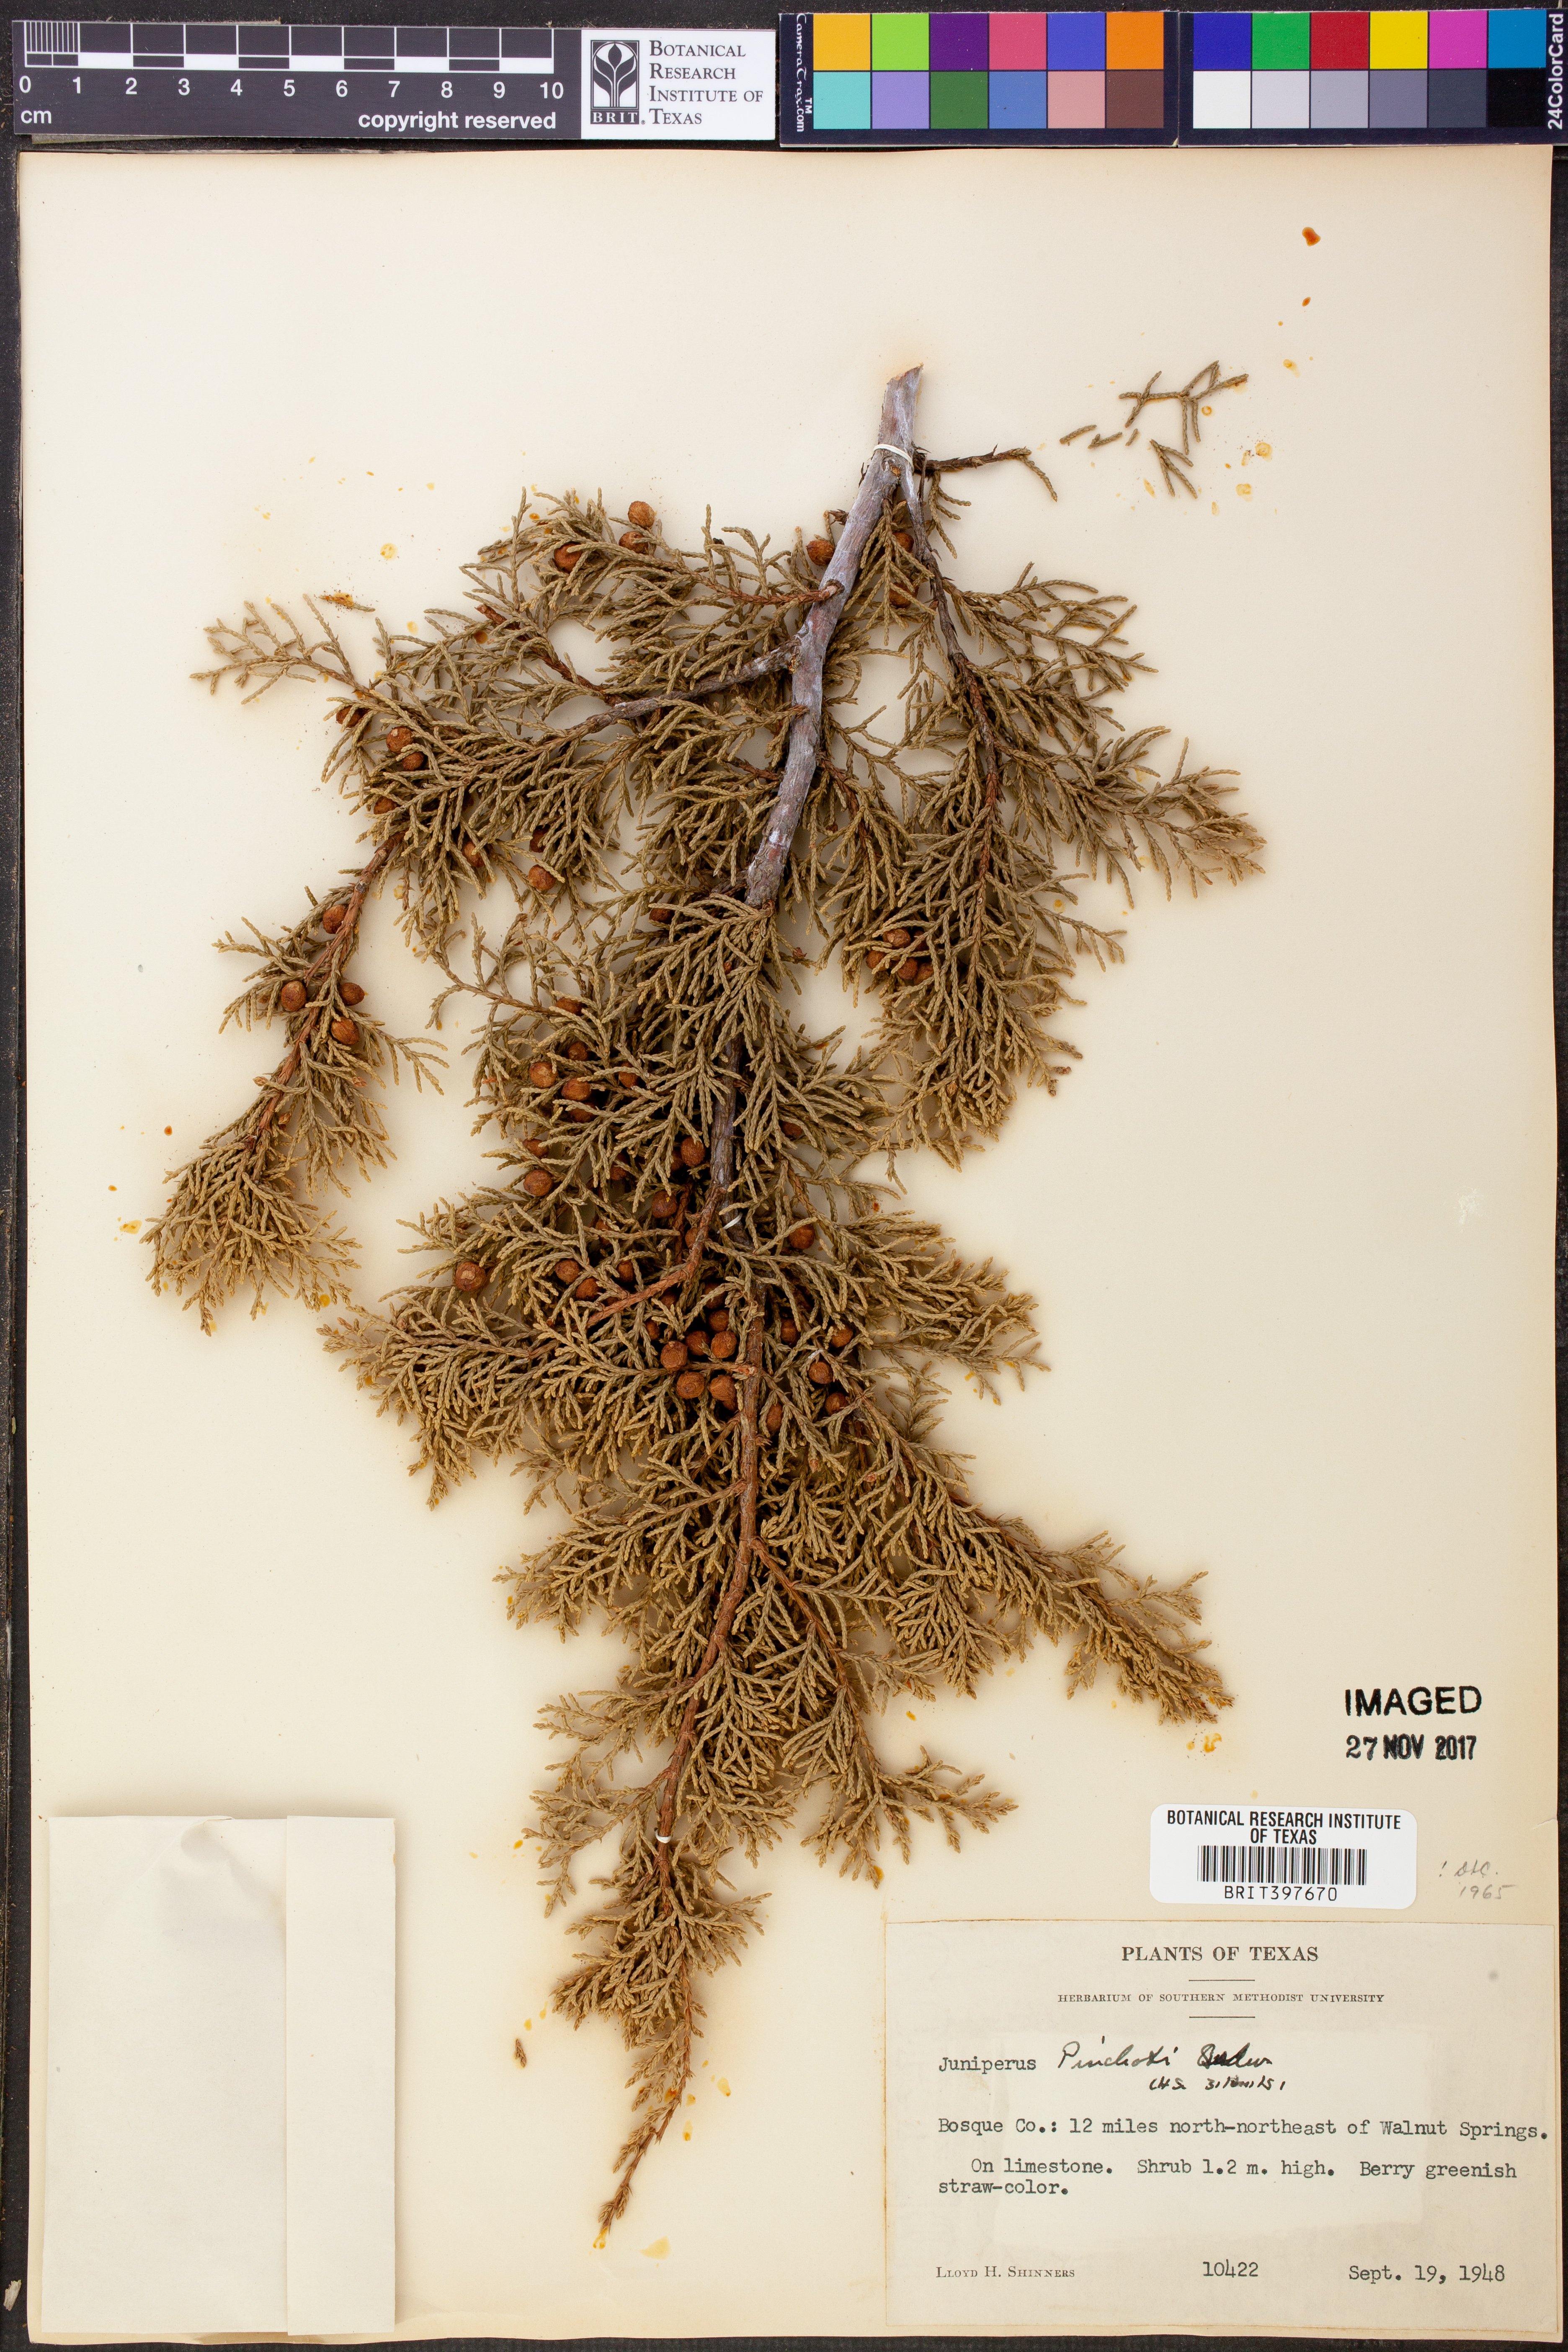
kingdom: Plantae
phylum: Tracheophyta
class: Pinopsida
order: Pinales
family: Cupressaceae
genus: Juniperus
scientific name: Juniperus pinchotii
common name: Pinchot juniper
